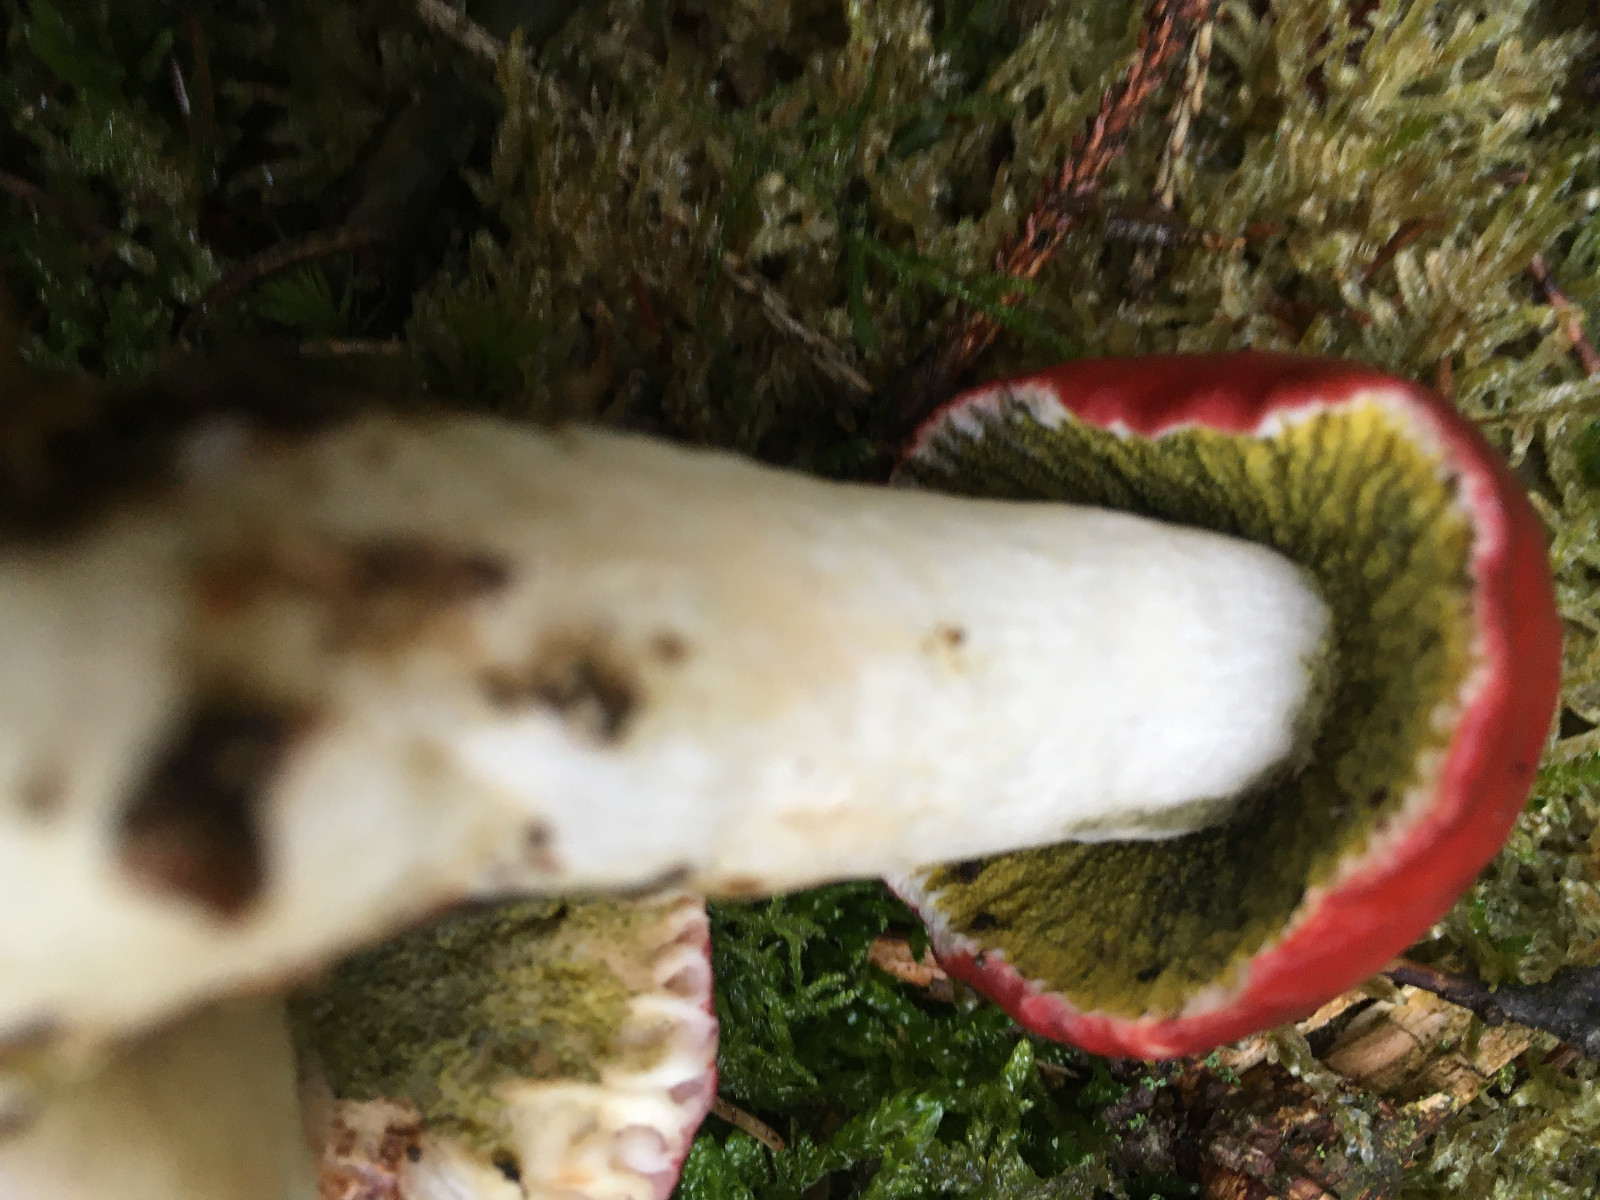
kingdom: Fungi
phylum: Ascomycota
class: Sordariomycetes
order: Hypocreales
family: Hypocreaceae
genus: Hypomyces
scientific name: Hypomyces luteovirens
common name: gulgrøn snylteskorpe
